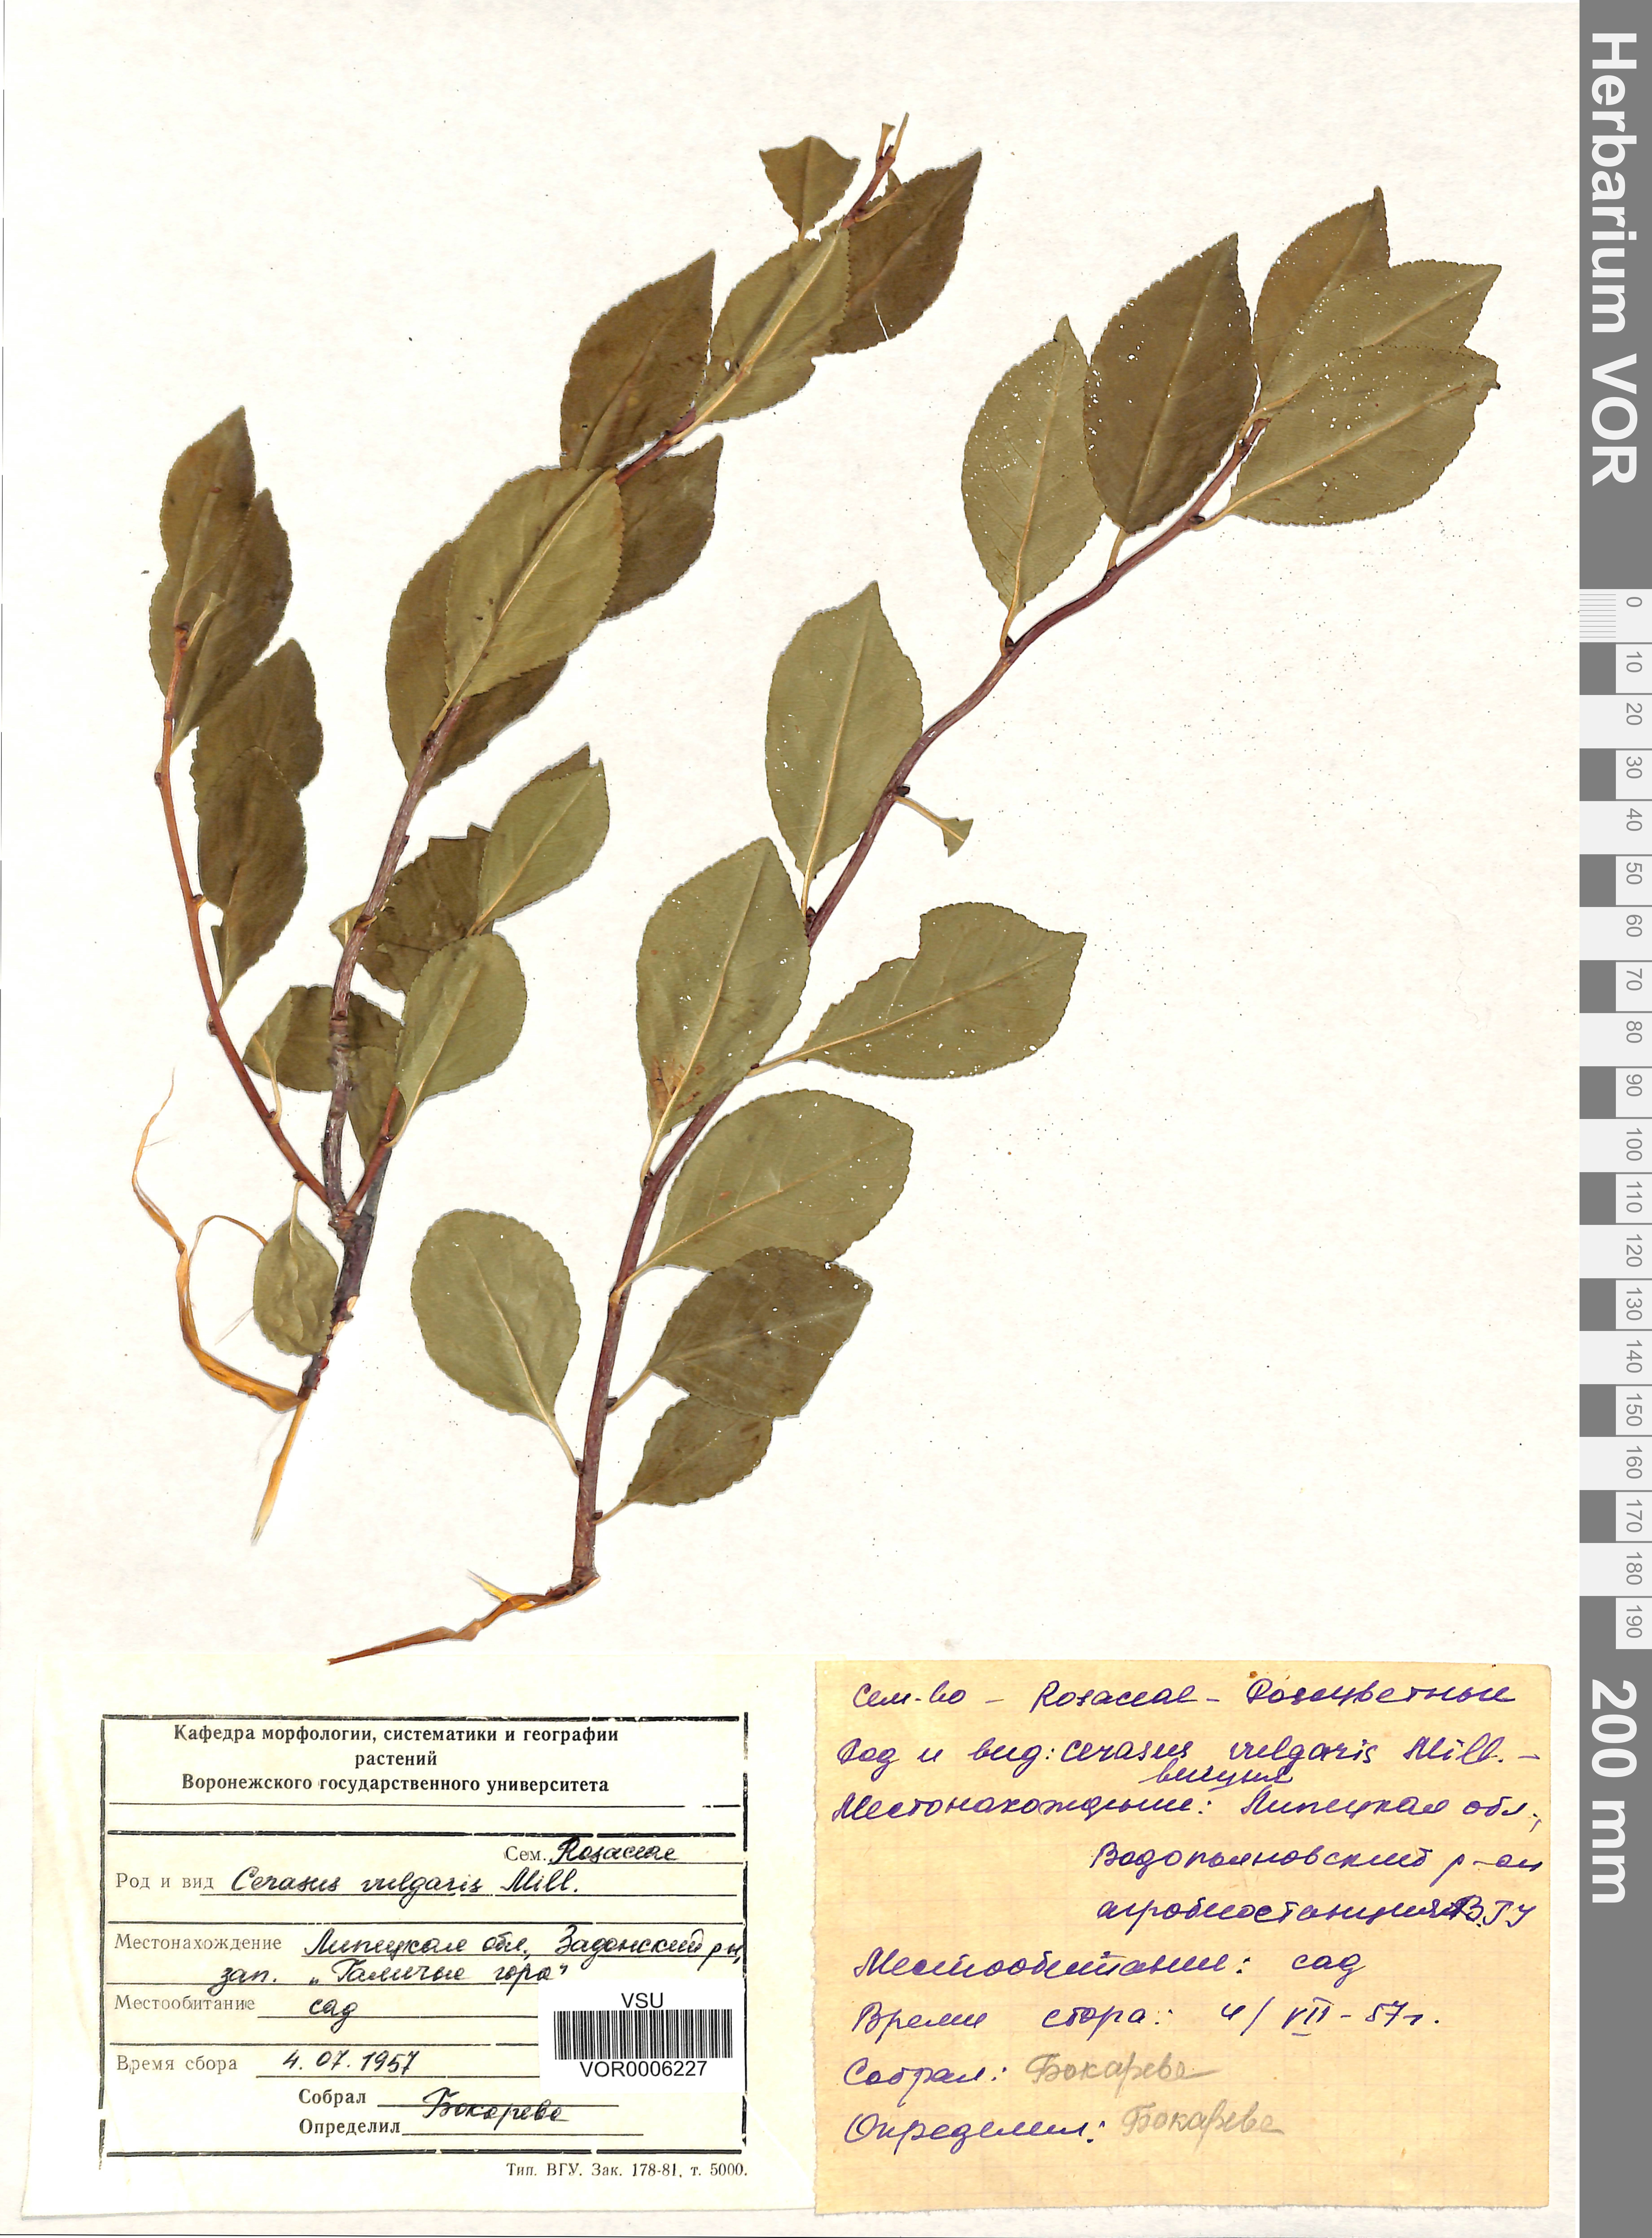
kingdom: Plantae
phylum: Tracheophyta
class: Magnoliopsida
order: Rosales
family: Rosaceae
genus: Prunus
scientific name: Prunus cerasus
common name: Morello cherry
